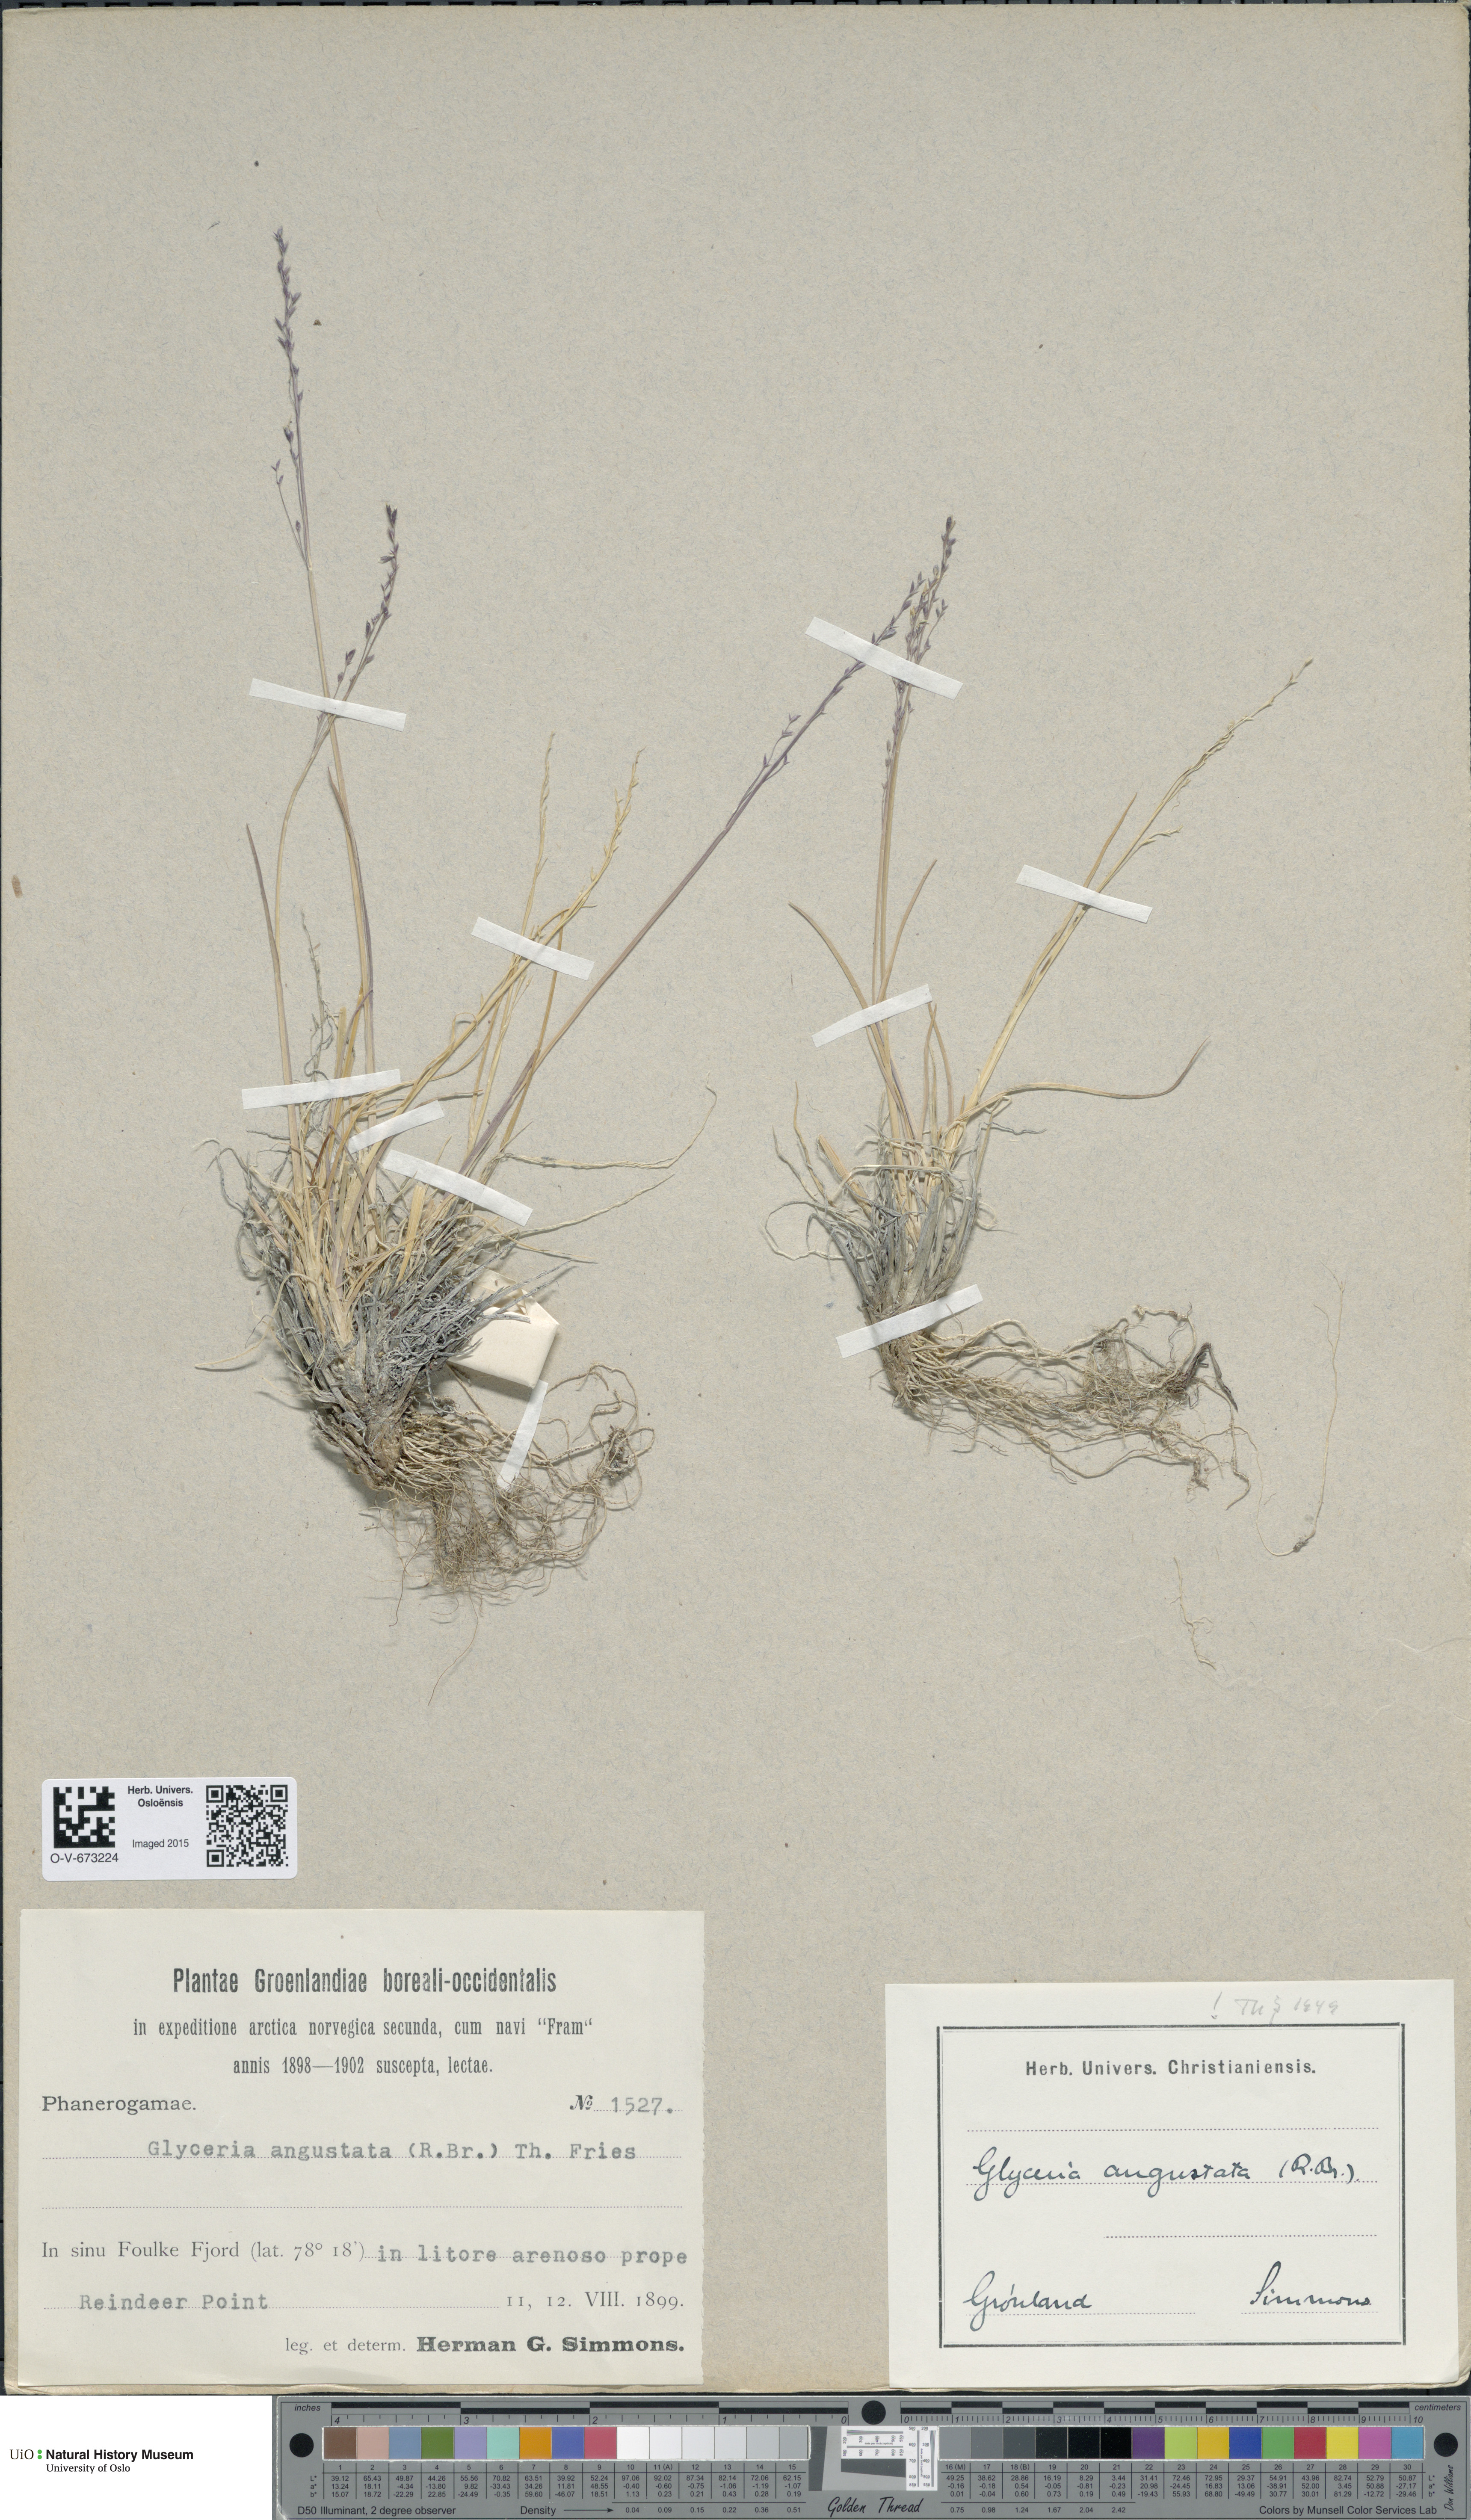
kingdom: Plantae
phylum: Tracheophyta
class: Liliopsida
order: Poales
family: Poaceae
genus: Puccinellia
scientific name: Puccinellia angustata
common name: Narrow alkaligrass
